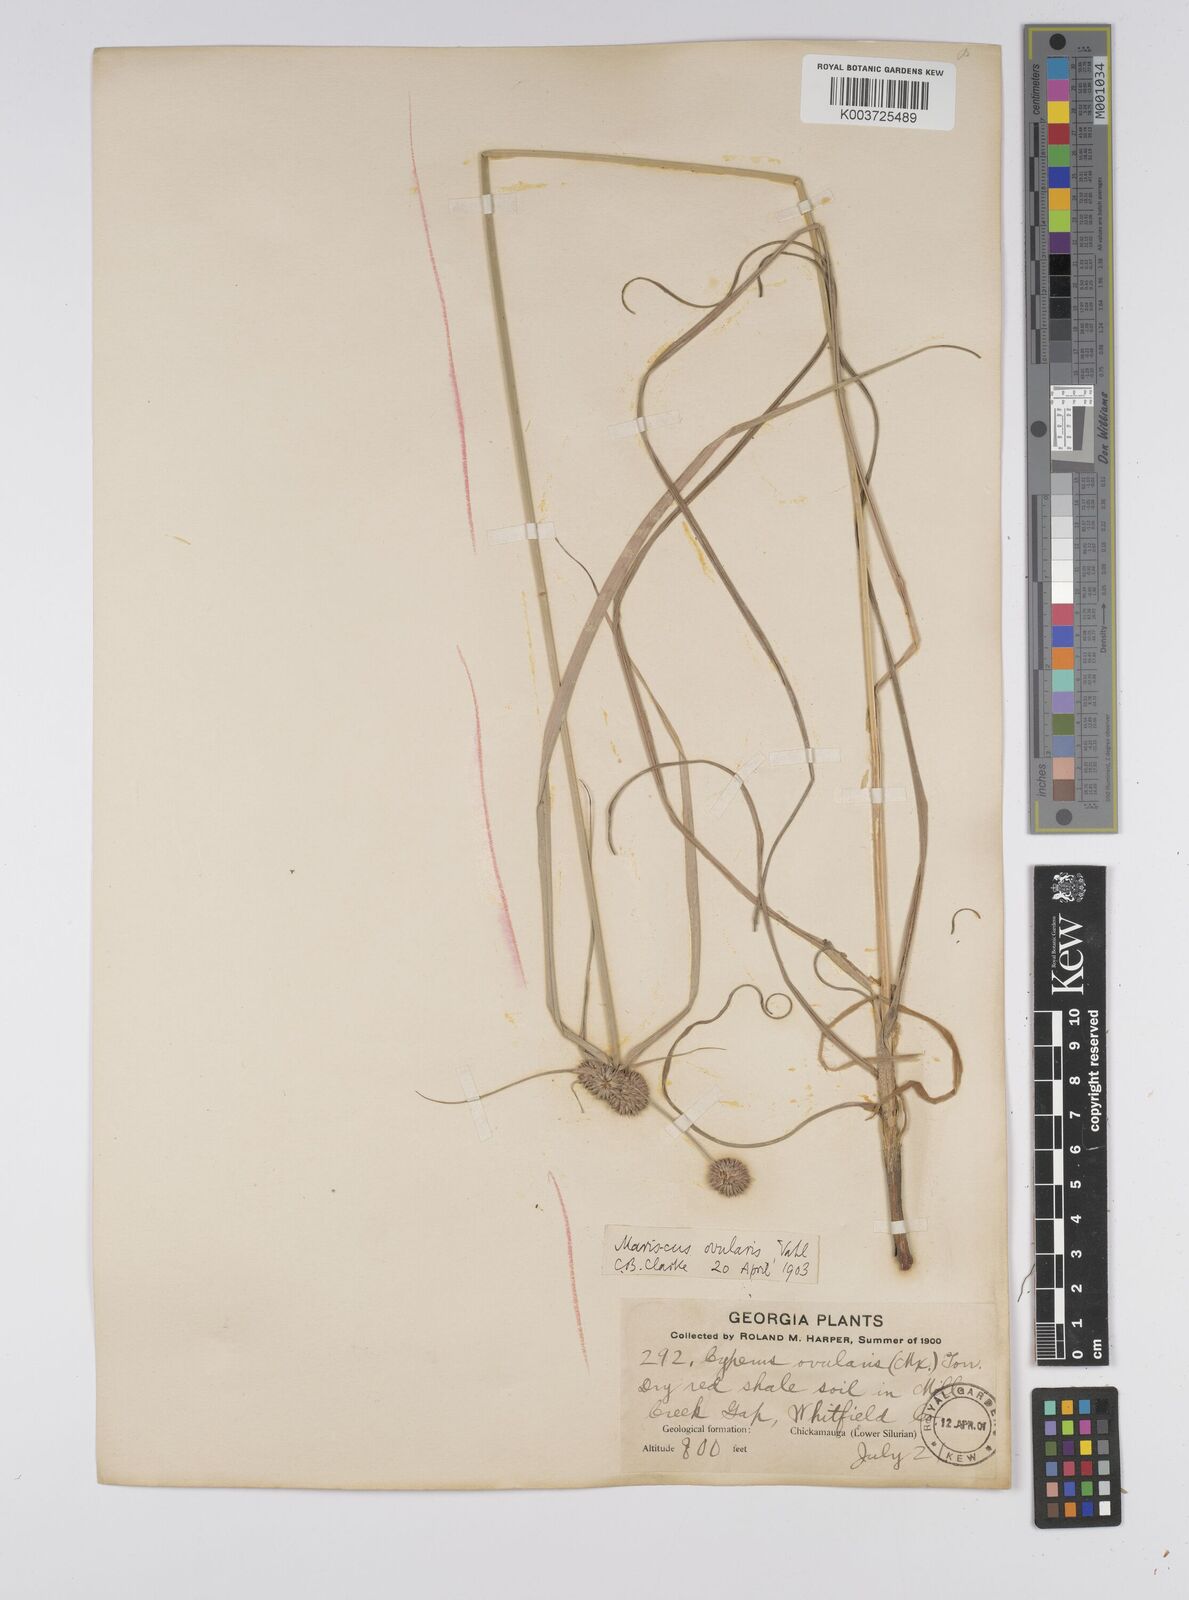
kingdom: Plantae
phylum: Tracheophyta
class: Liliopsida
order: Poales
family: Cyperaceae
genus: Cyperus
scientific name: Cyperus echinatus
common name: Teasel sedge
